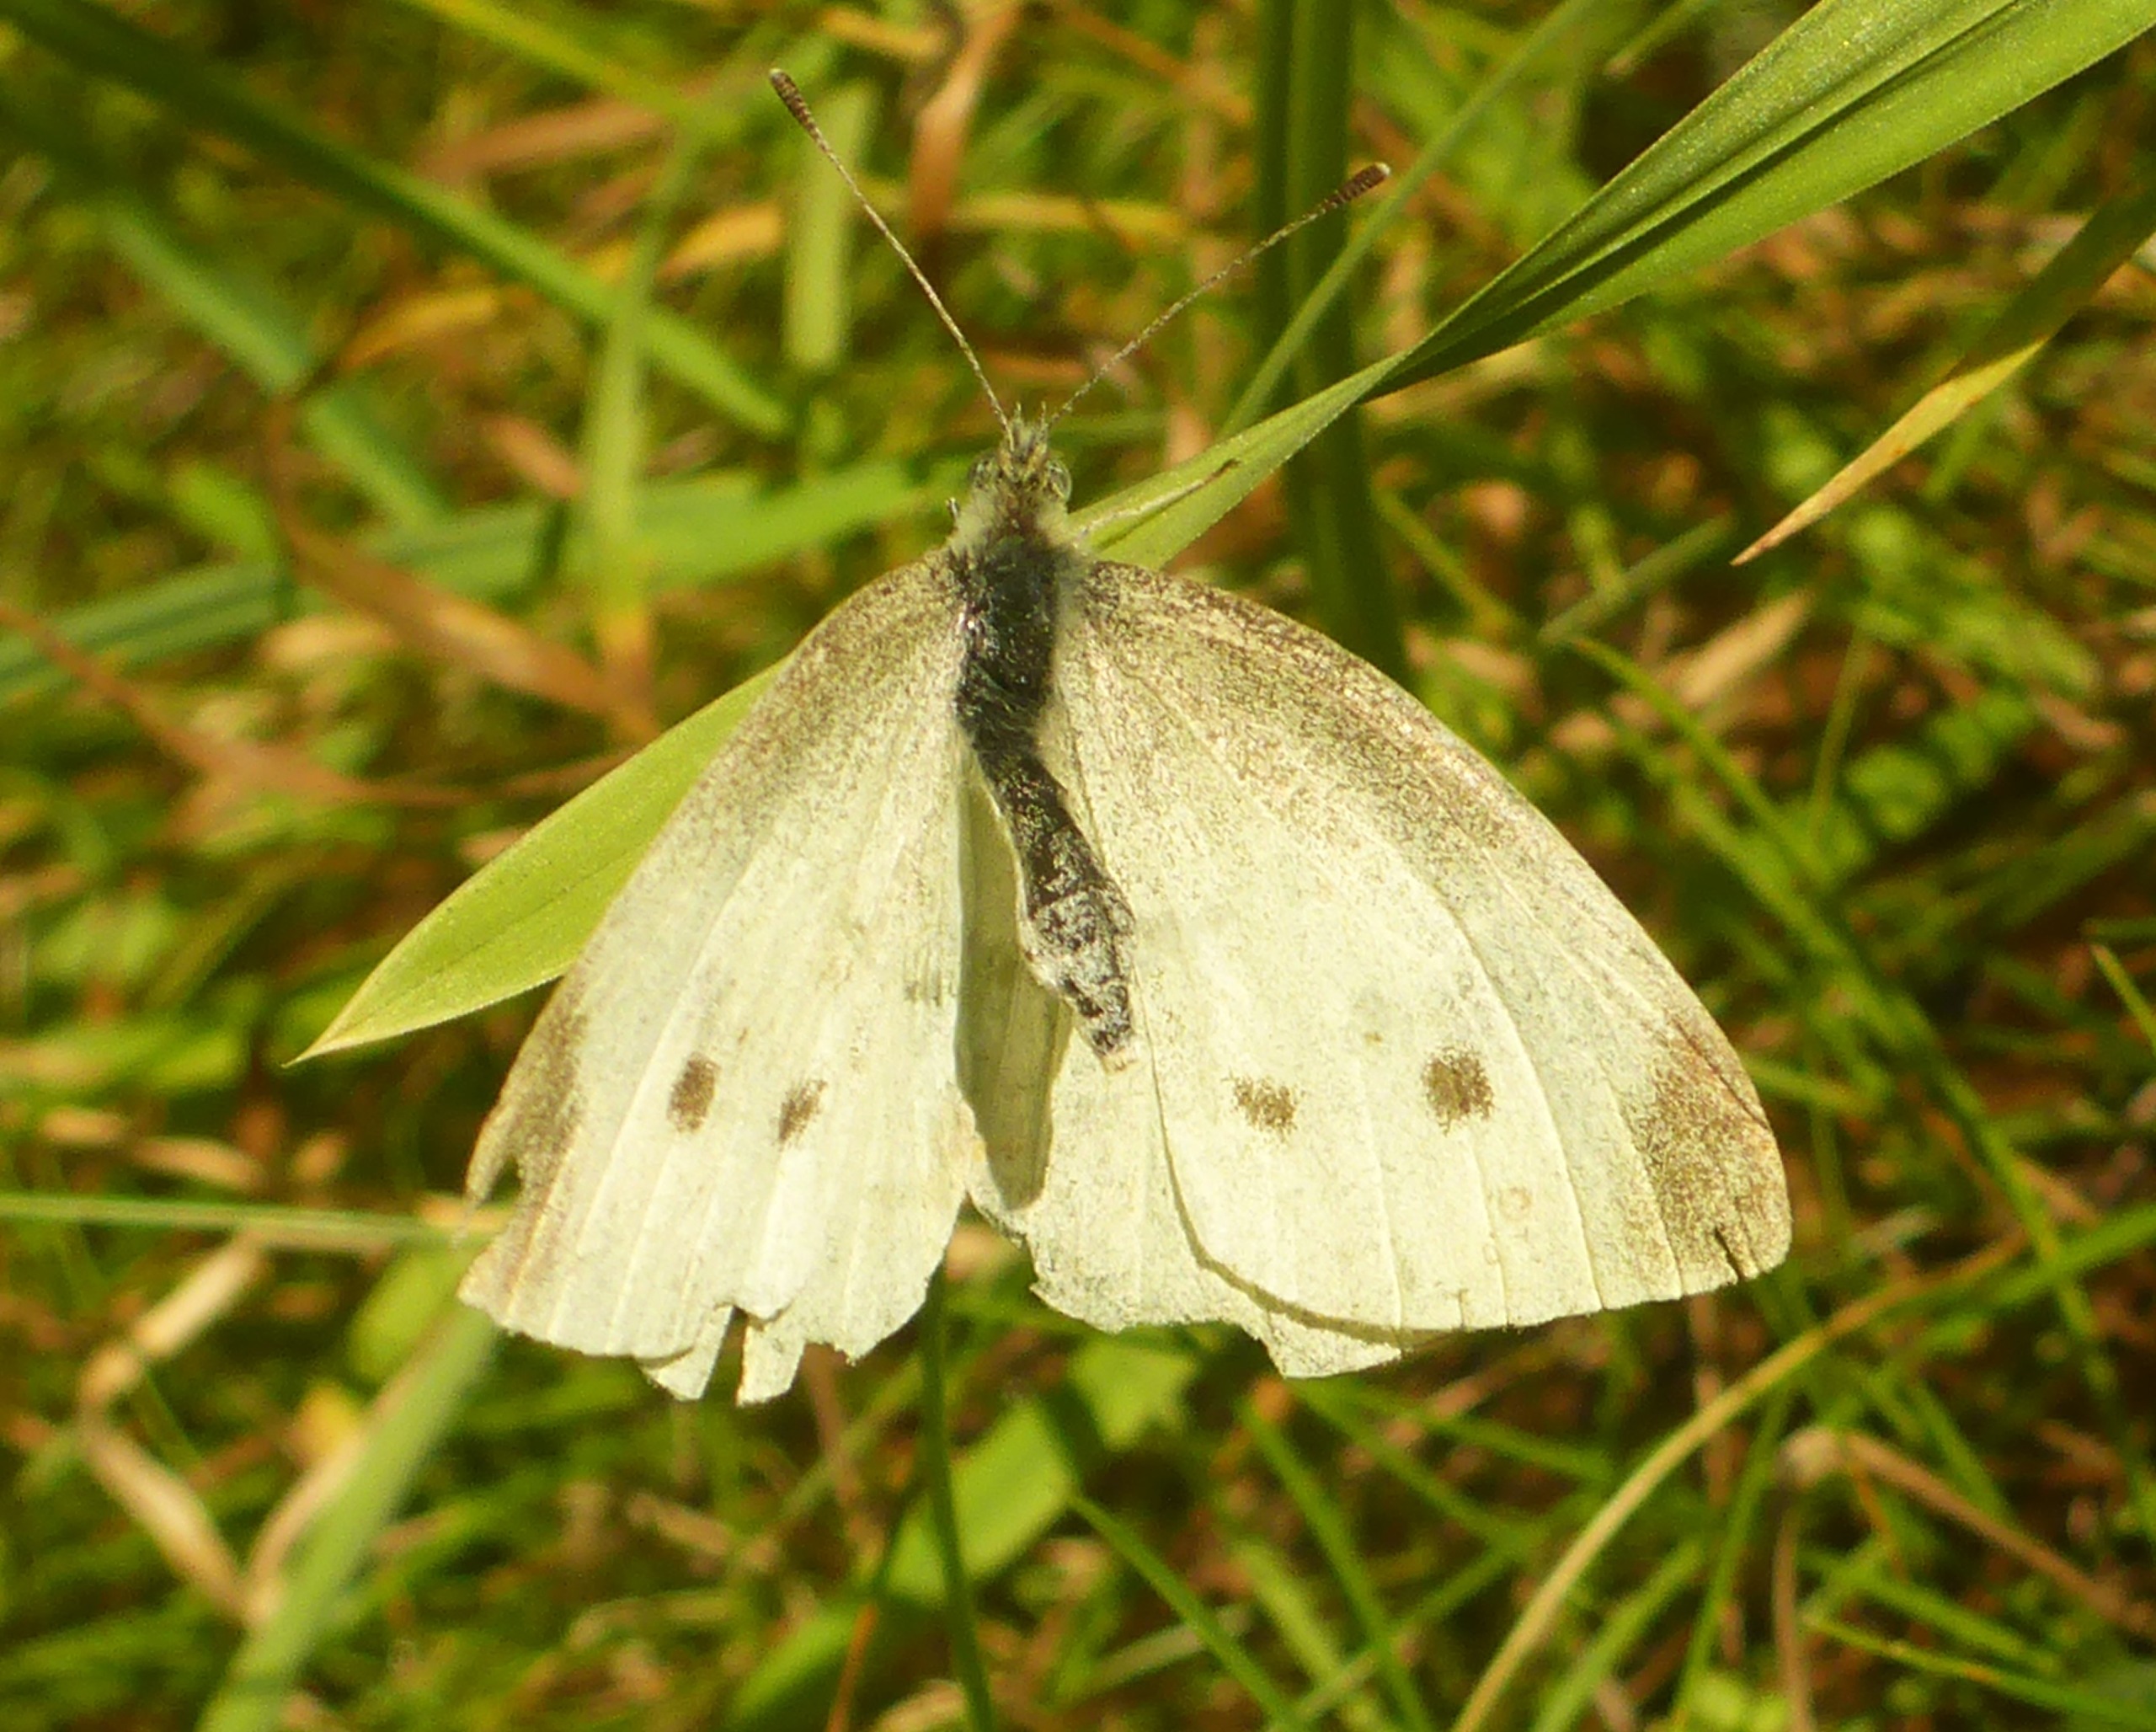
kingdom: Animalia
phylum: Arthropoda
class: Insecta
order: Lepidoptera
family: Pieridae
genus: Pieris
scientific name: Pieris rapae
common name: Lille kålsommerfugl
